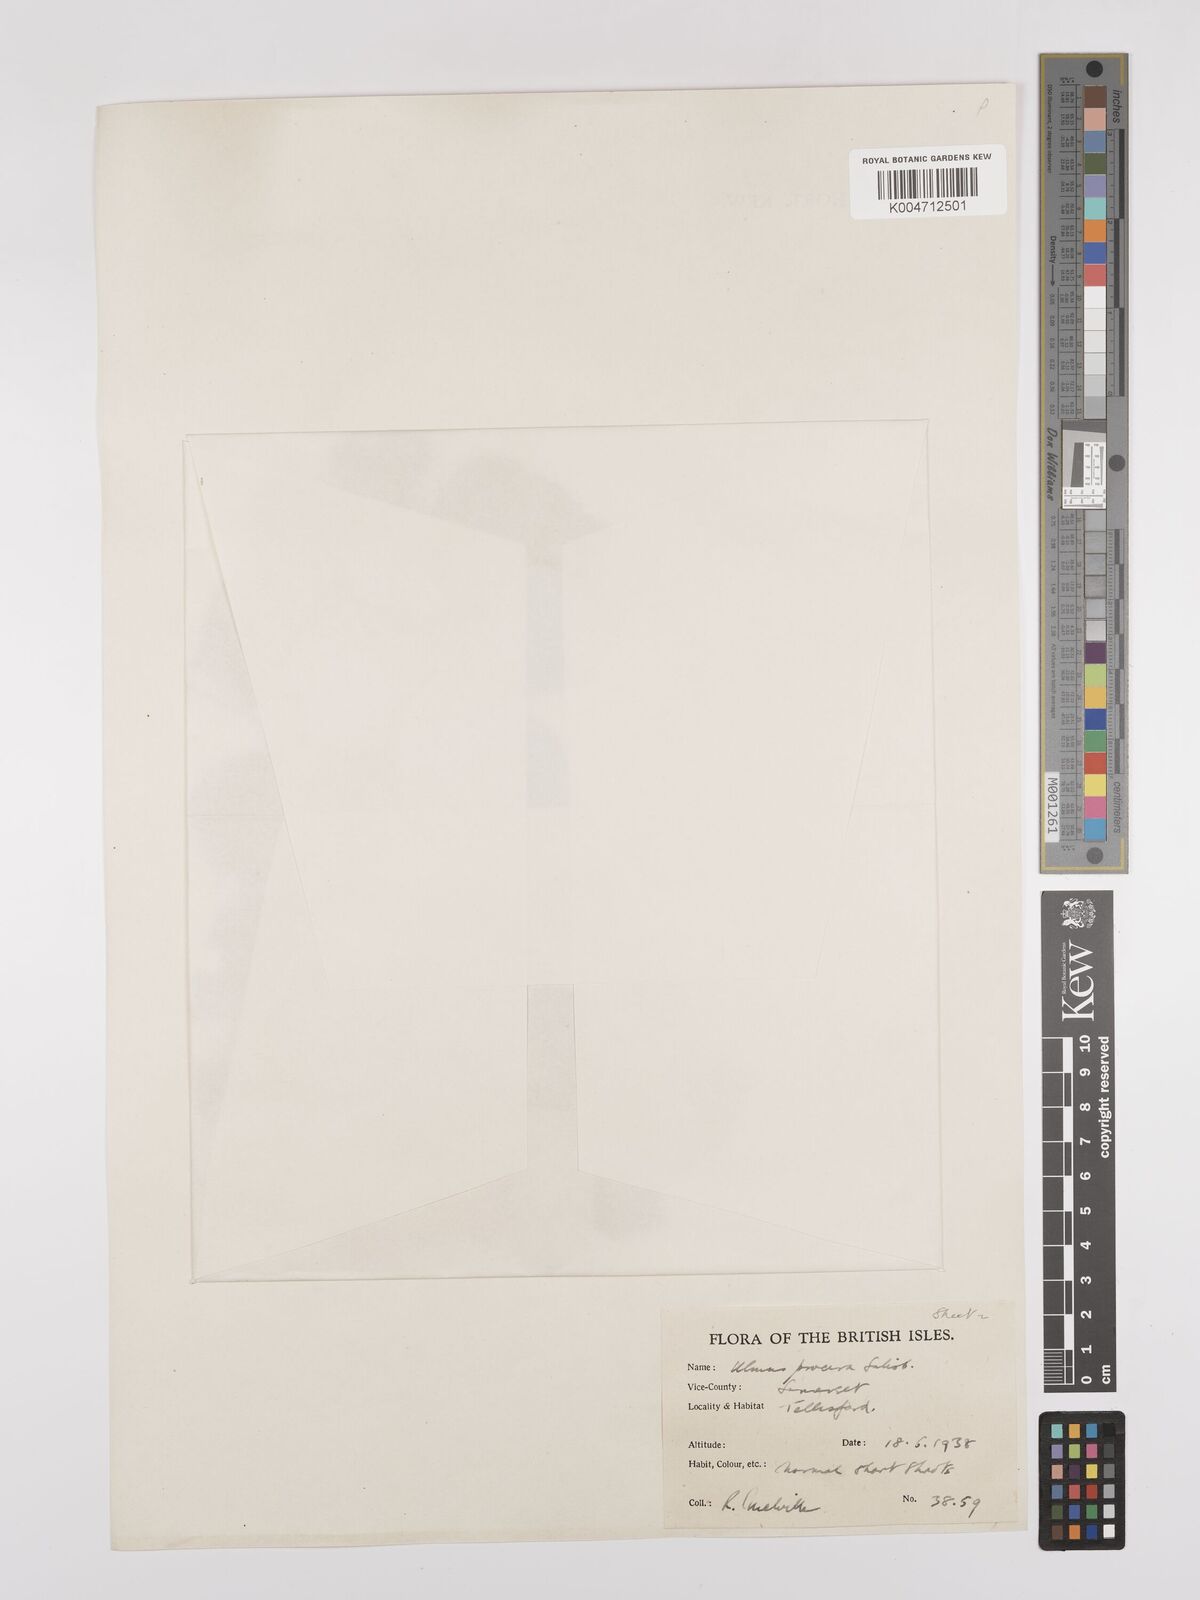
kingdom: Plantae
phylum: Tracheophyta
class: Magnoliopsida
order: Rosales
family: Ulmaceae
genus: Ulmus
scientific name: Ulmus minor
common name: Small-leaved elm
